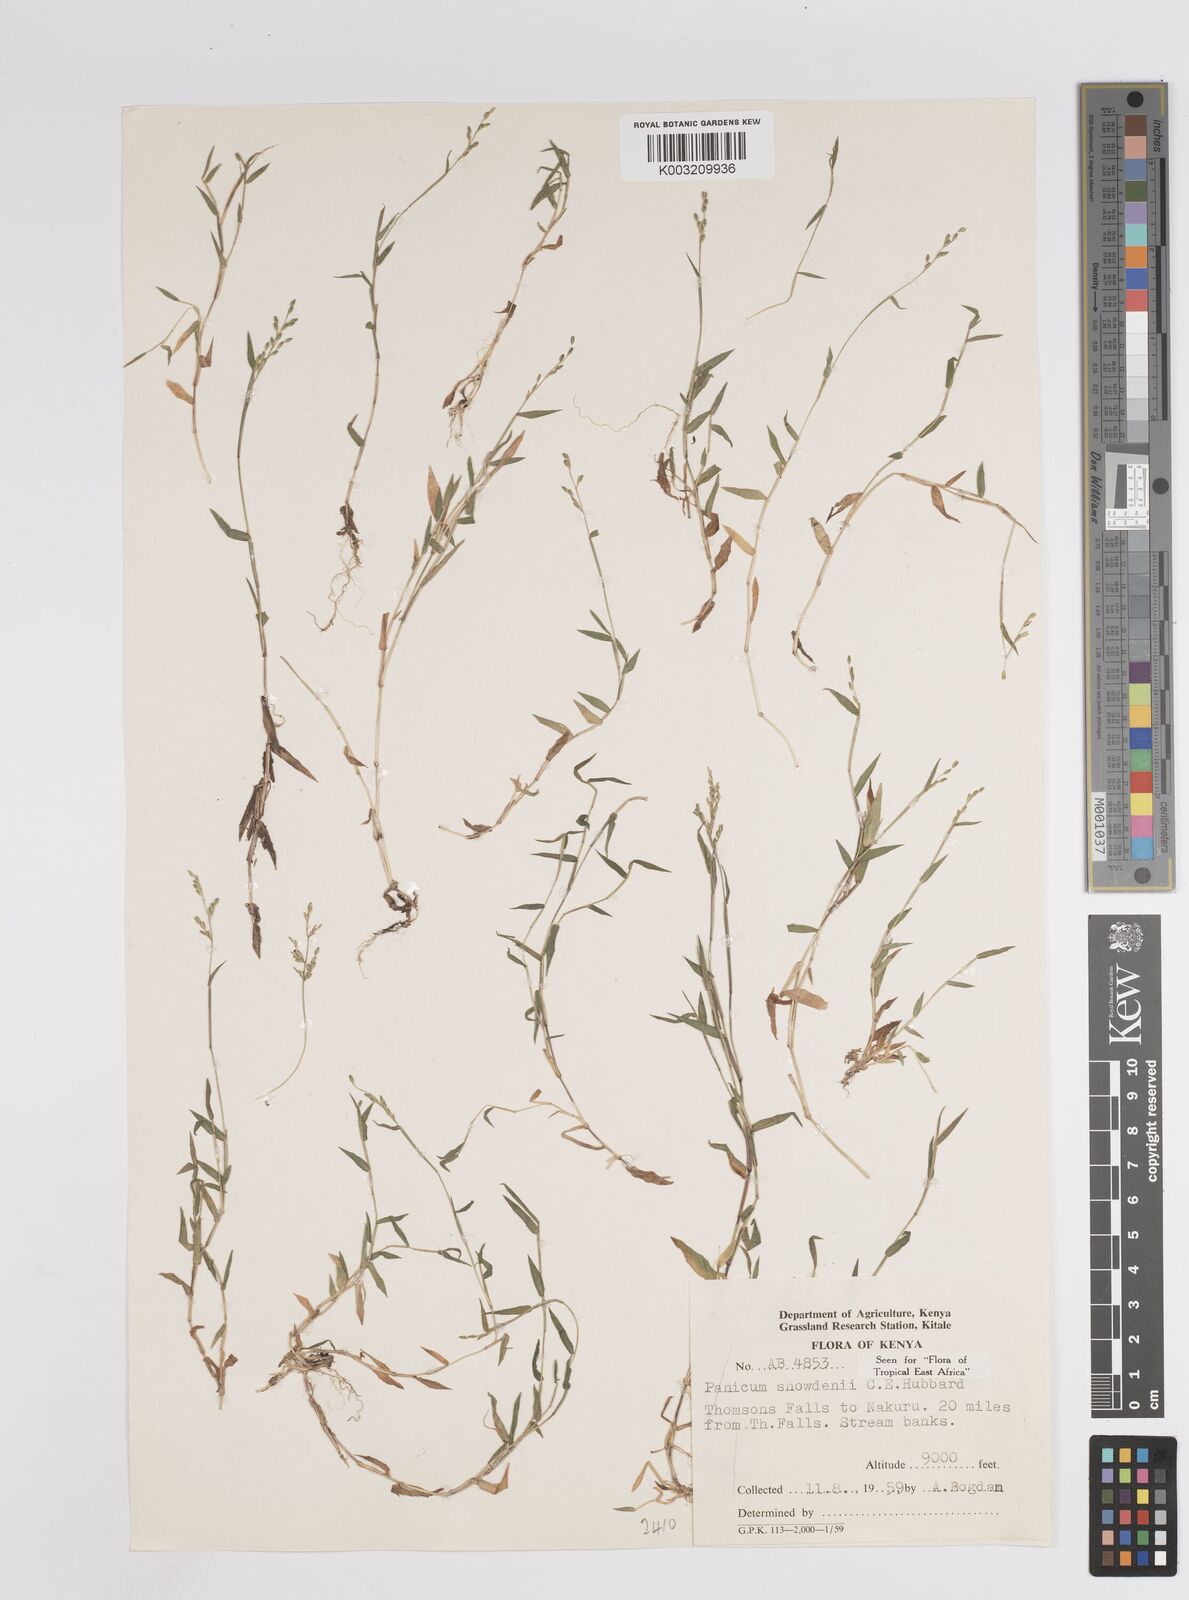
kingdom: Plantae
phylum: Tracheophyta
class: Liliopsida
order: Poales
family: Poaceae
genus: Adenochloa
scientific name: Adenochloa hymeniochila
